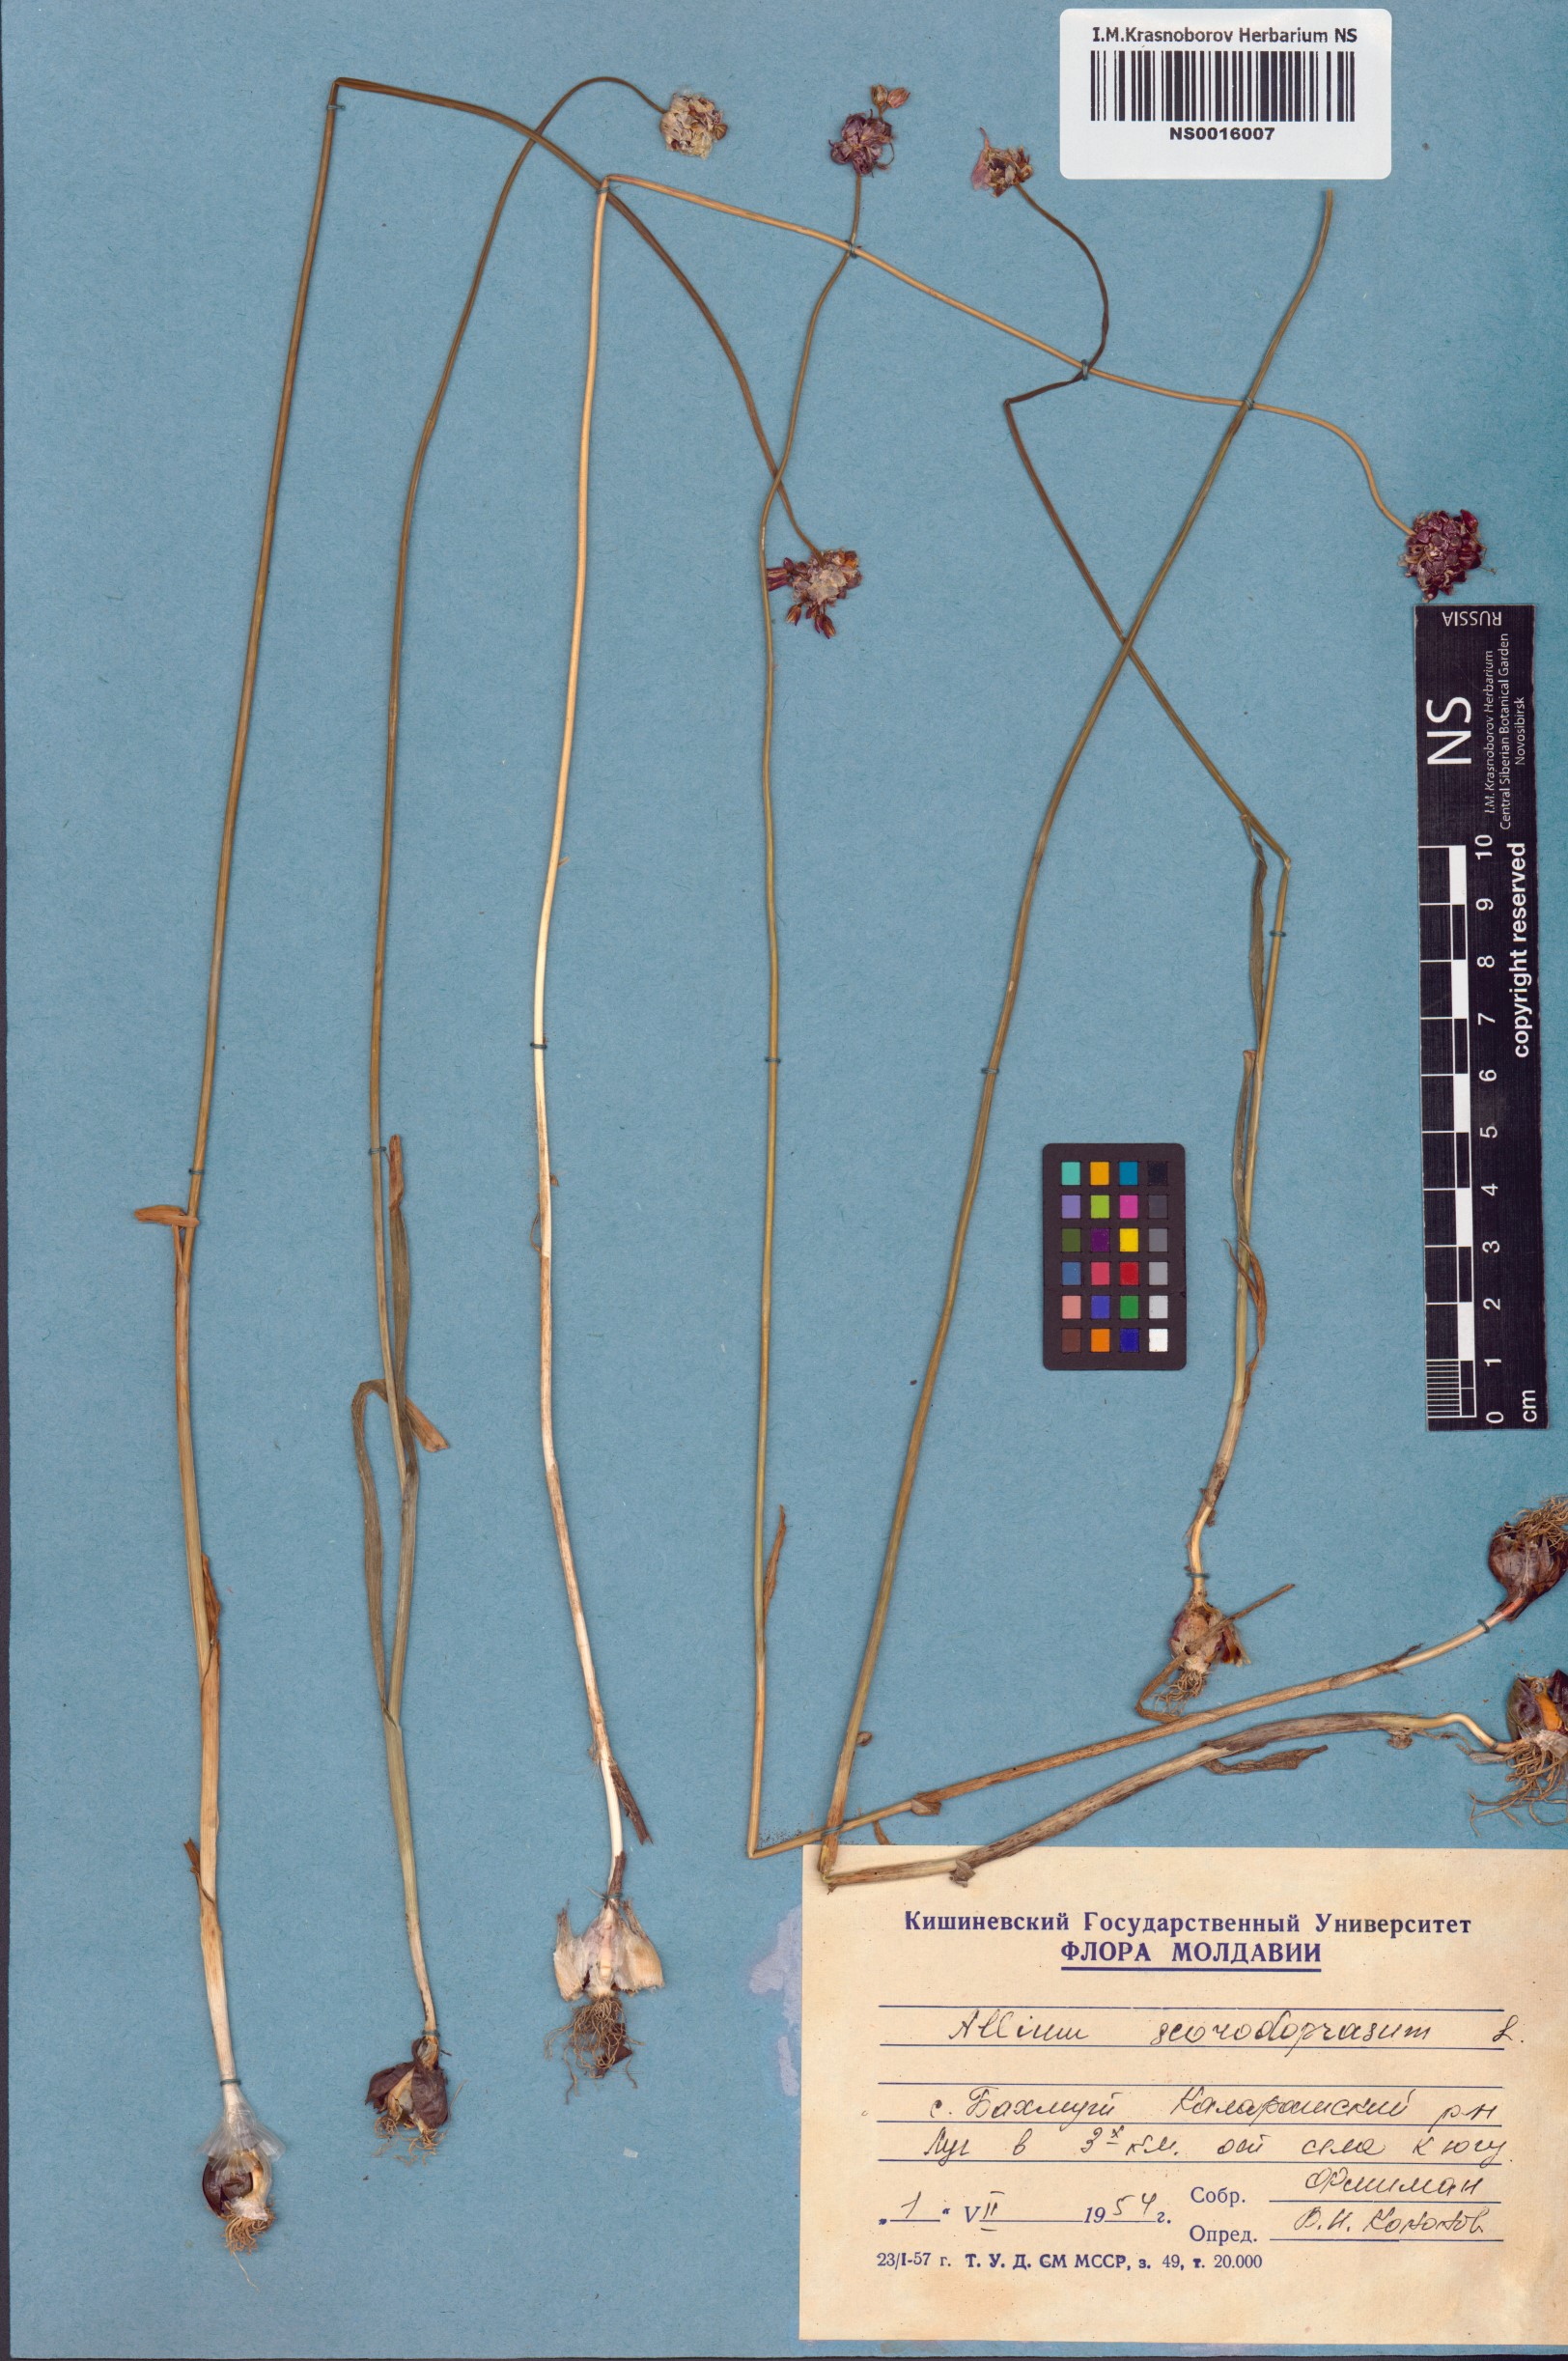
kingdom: Plantae
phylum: Tracheophyta
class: Liliopsida
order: Asparagales
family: Amaryllidaceae
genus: Allium
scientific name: Allium scorodoprasum
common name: Sand leek
